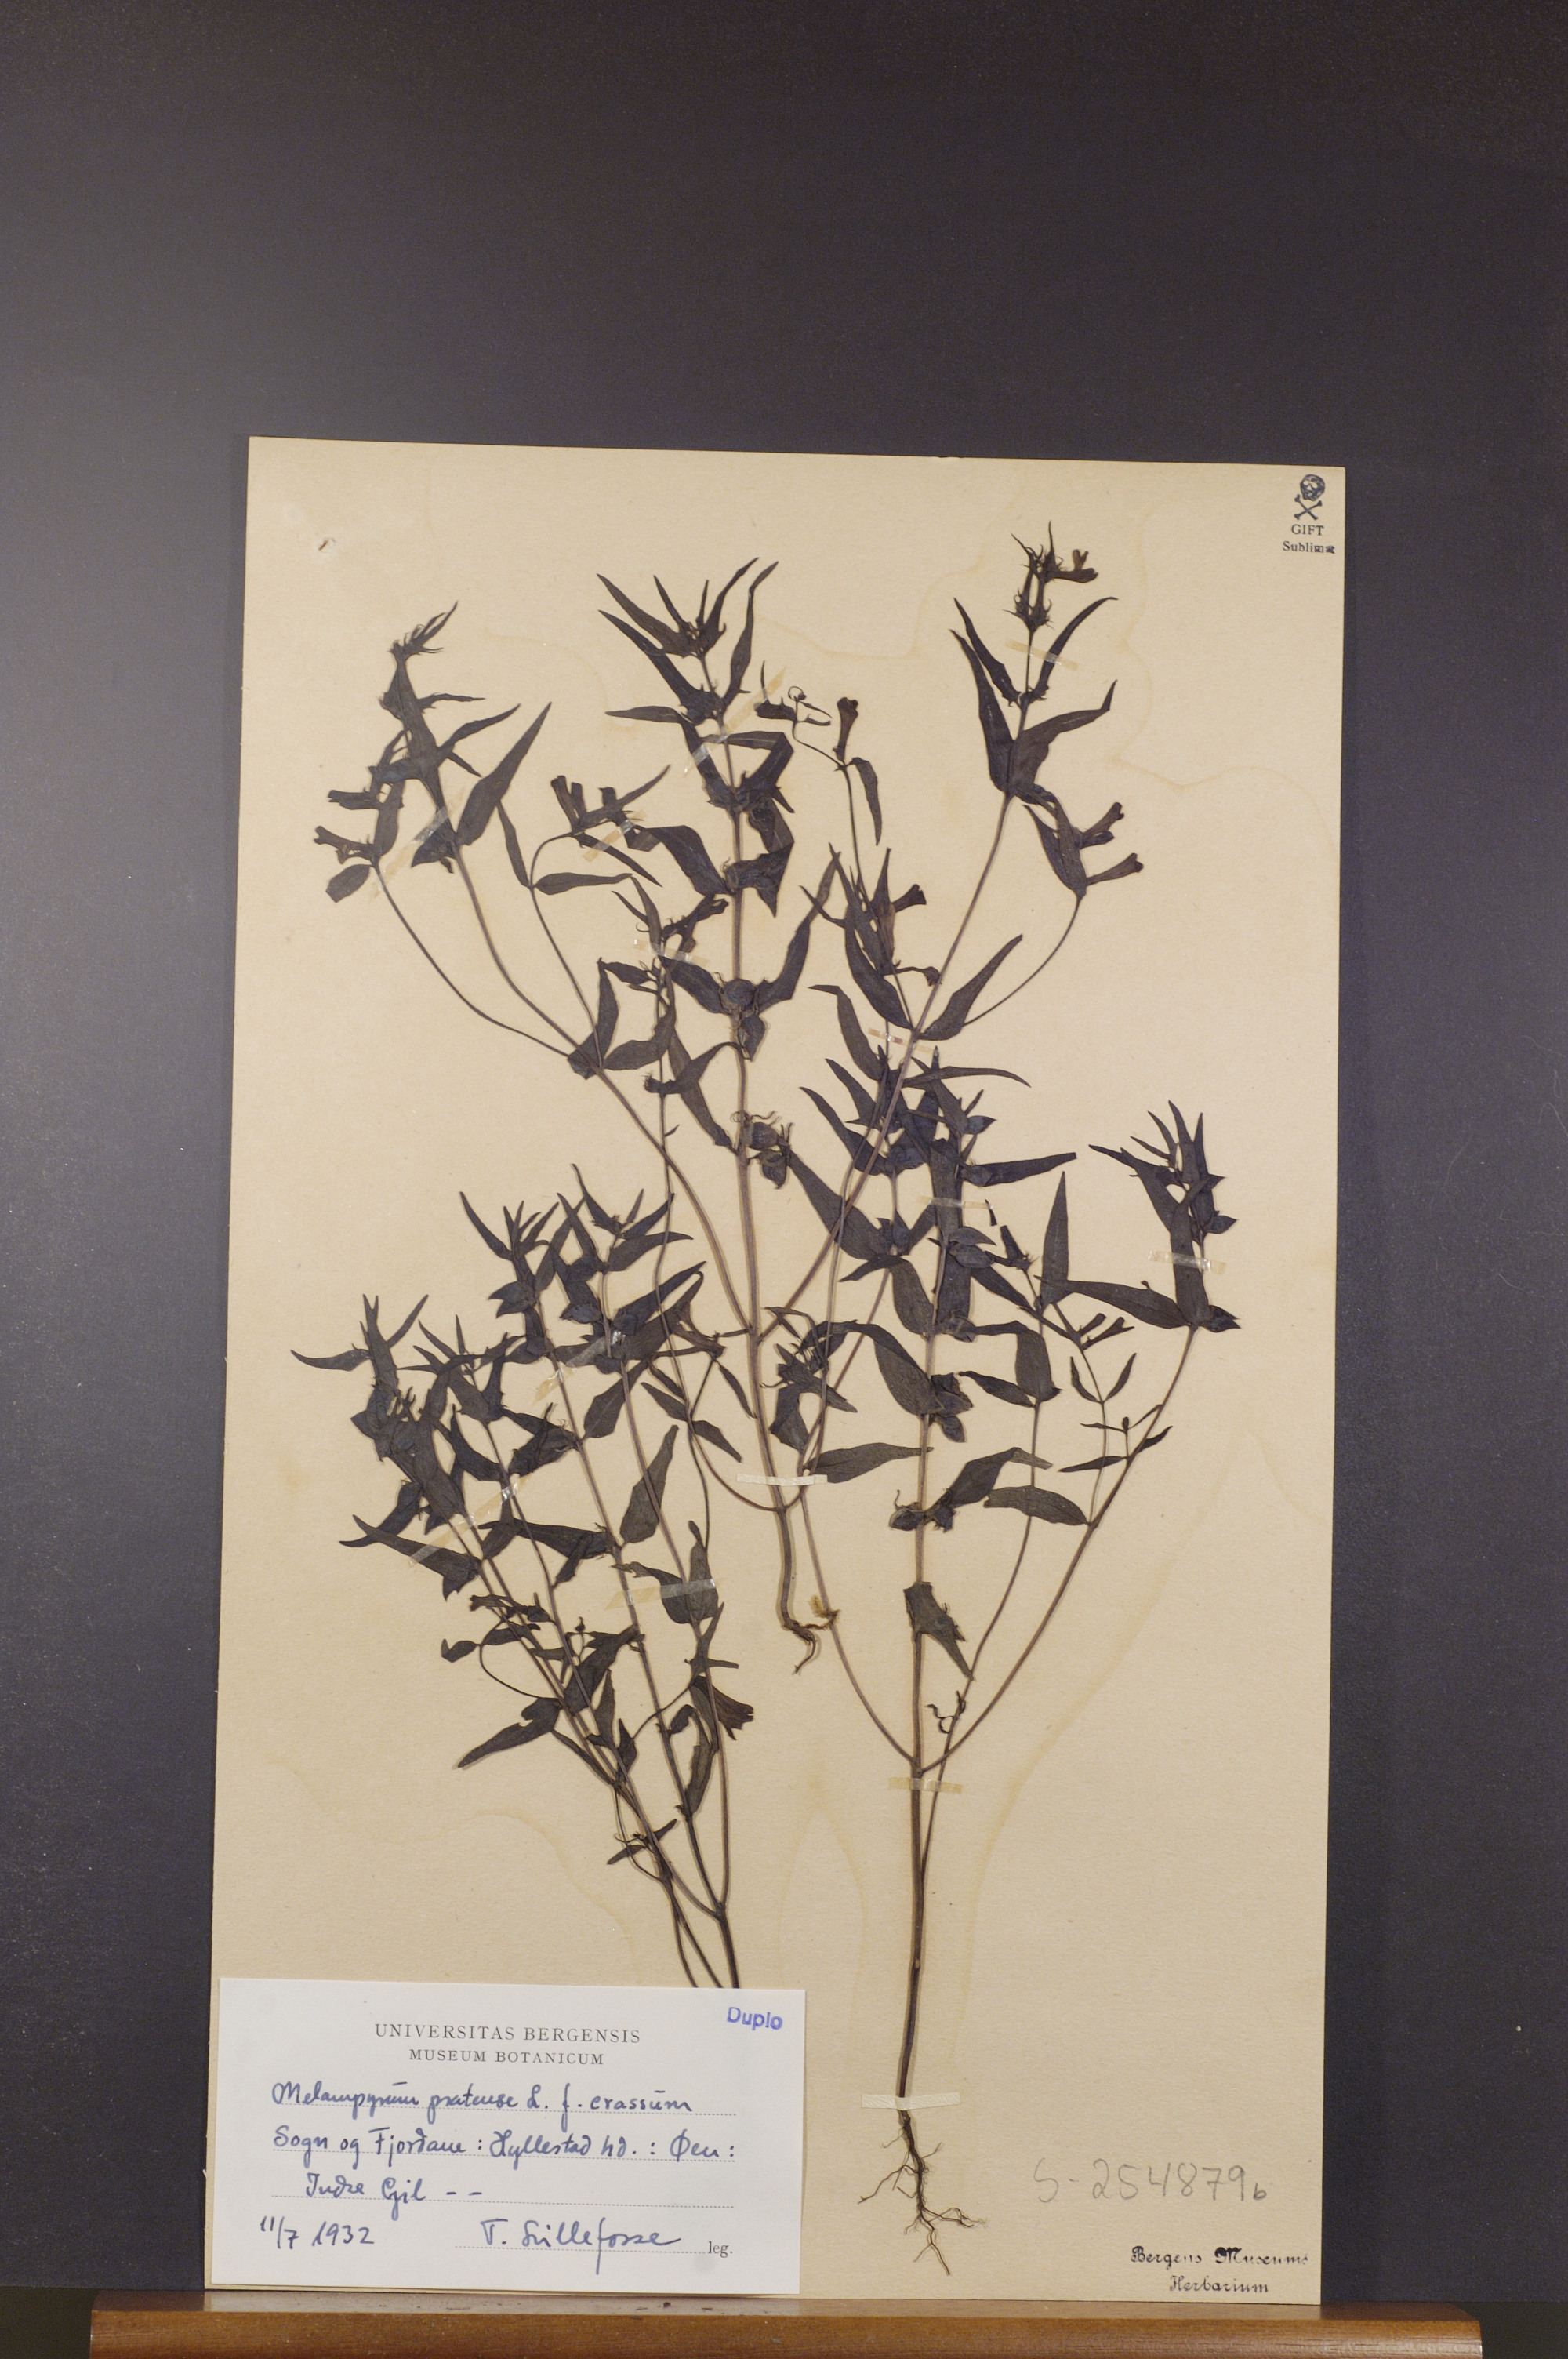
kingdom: Plantae
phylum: Tracheophyta
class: Magnoliopsida
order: Lamiales
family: Orobanchaceae
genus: Melampyrum
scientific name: Melampyrum pratense
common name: Common cow-wheat
